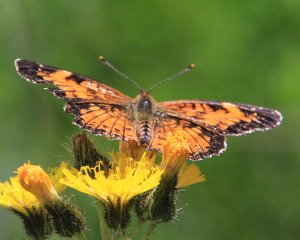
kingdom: Animalia
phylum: Arthropoda
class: Insecta
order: Lepidoptera
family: Nymphalidae
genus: Phyciodes
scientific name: Phyciodes tharos
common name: Northern Crescent
